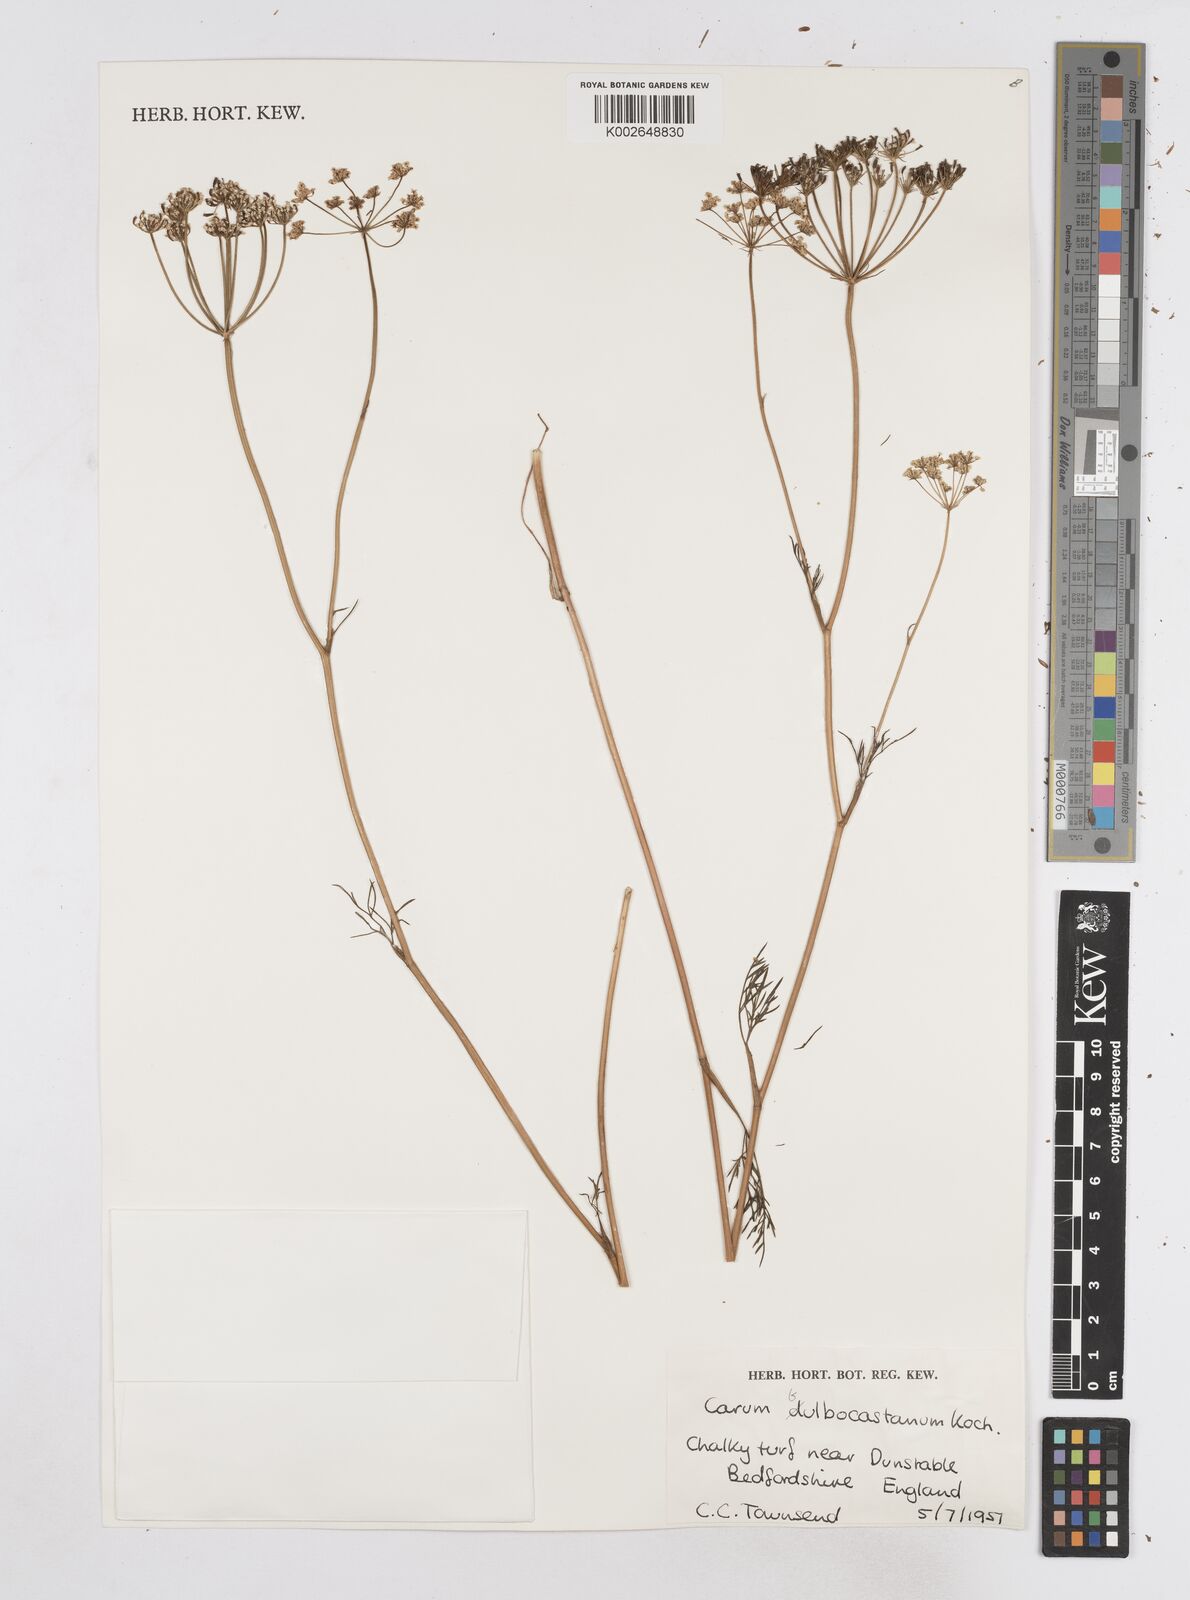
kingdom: Plantae
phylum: Tracheophyta
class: Magnoliopsida
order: Apiales
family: Apiaceae
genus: Bunium
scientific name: Bunium bulbocastanum
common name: Great pignut
